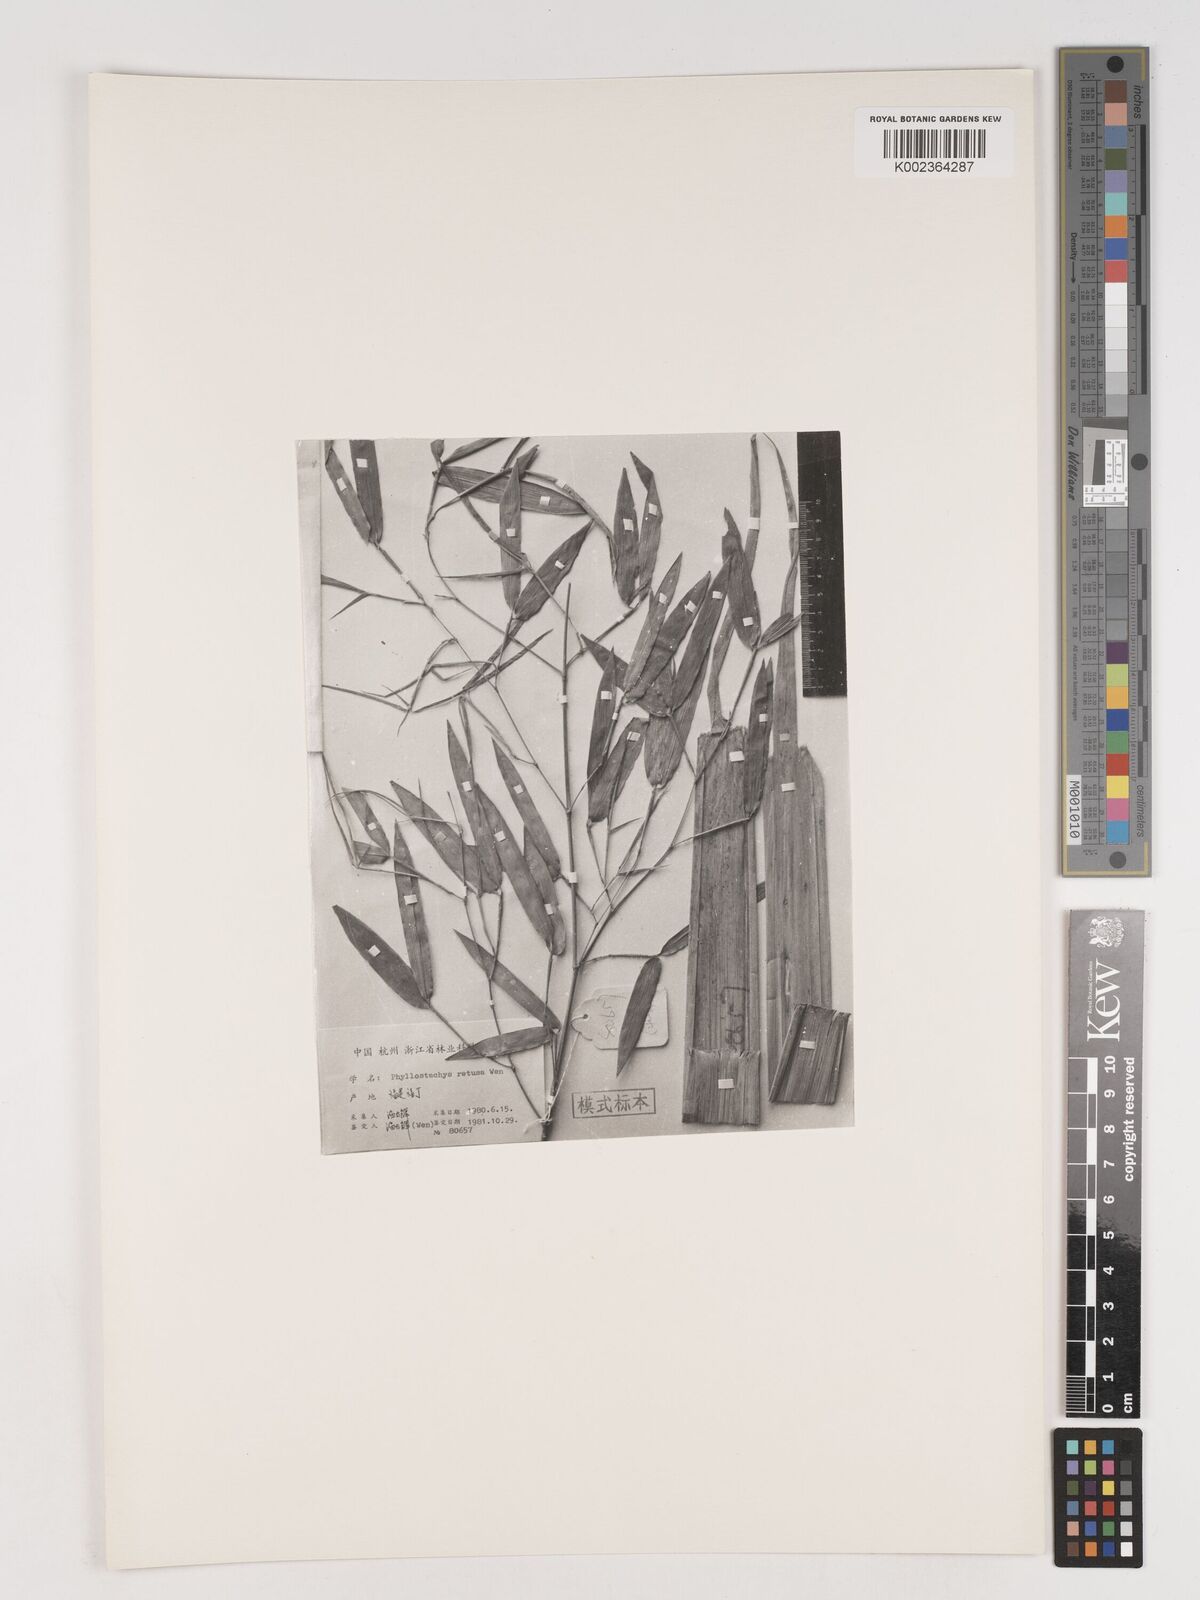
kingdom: Plantae
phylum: Tracheophyta
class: Liliopsida
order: Poales
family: Poaceae
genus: Phyllostachys
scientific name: Phyllostachys rubicunda
